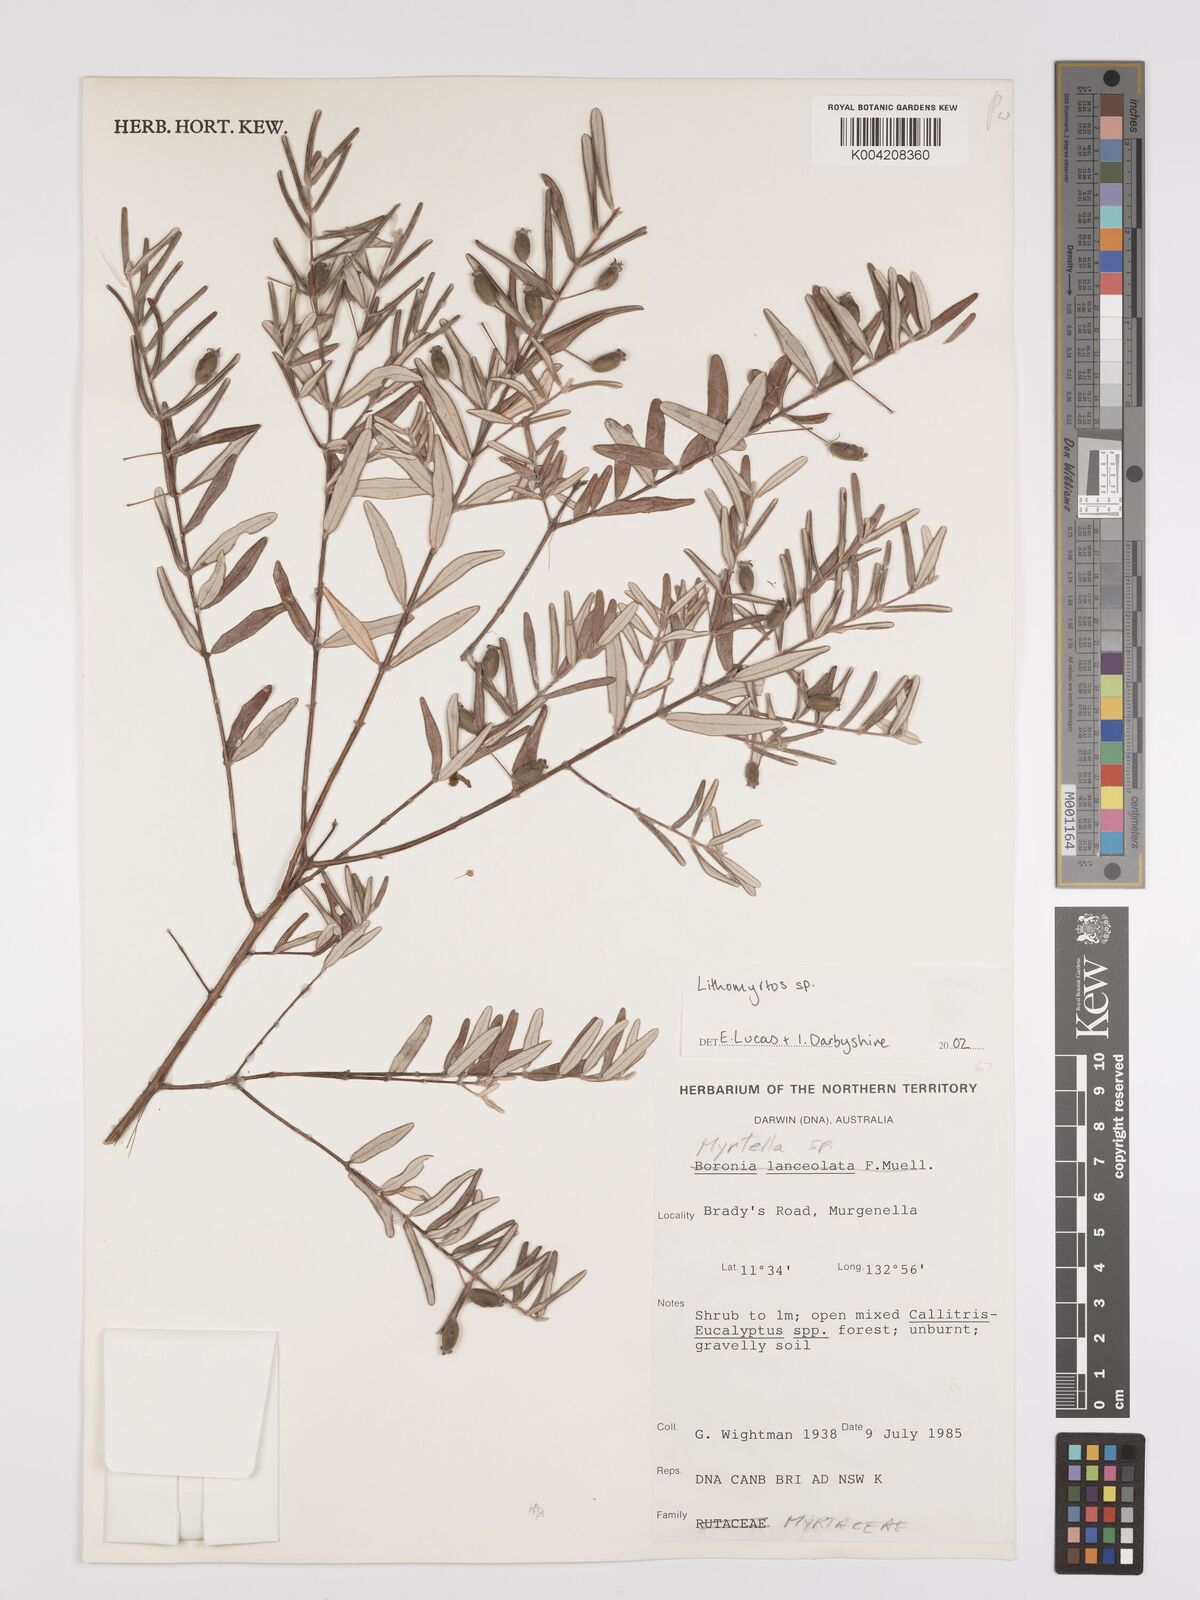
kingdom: Plantae
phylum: Tracheophyta
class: Magnoliopsida
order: Myrtales
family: Myrtaceae
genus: Lithomyrtus
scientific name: Lithomyrtus
